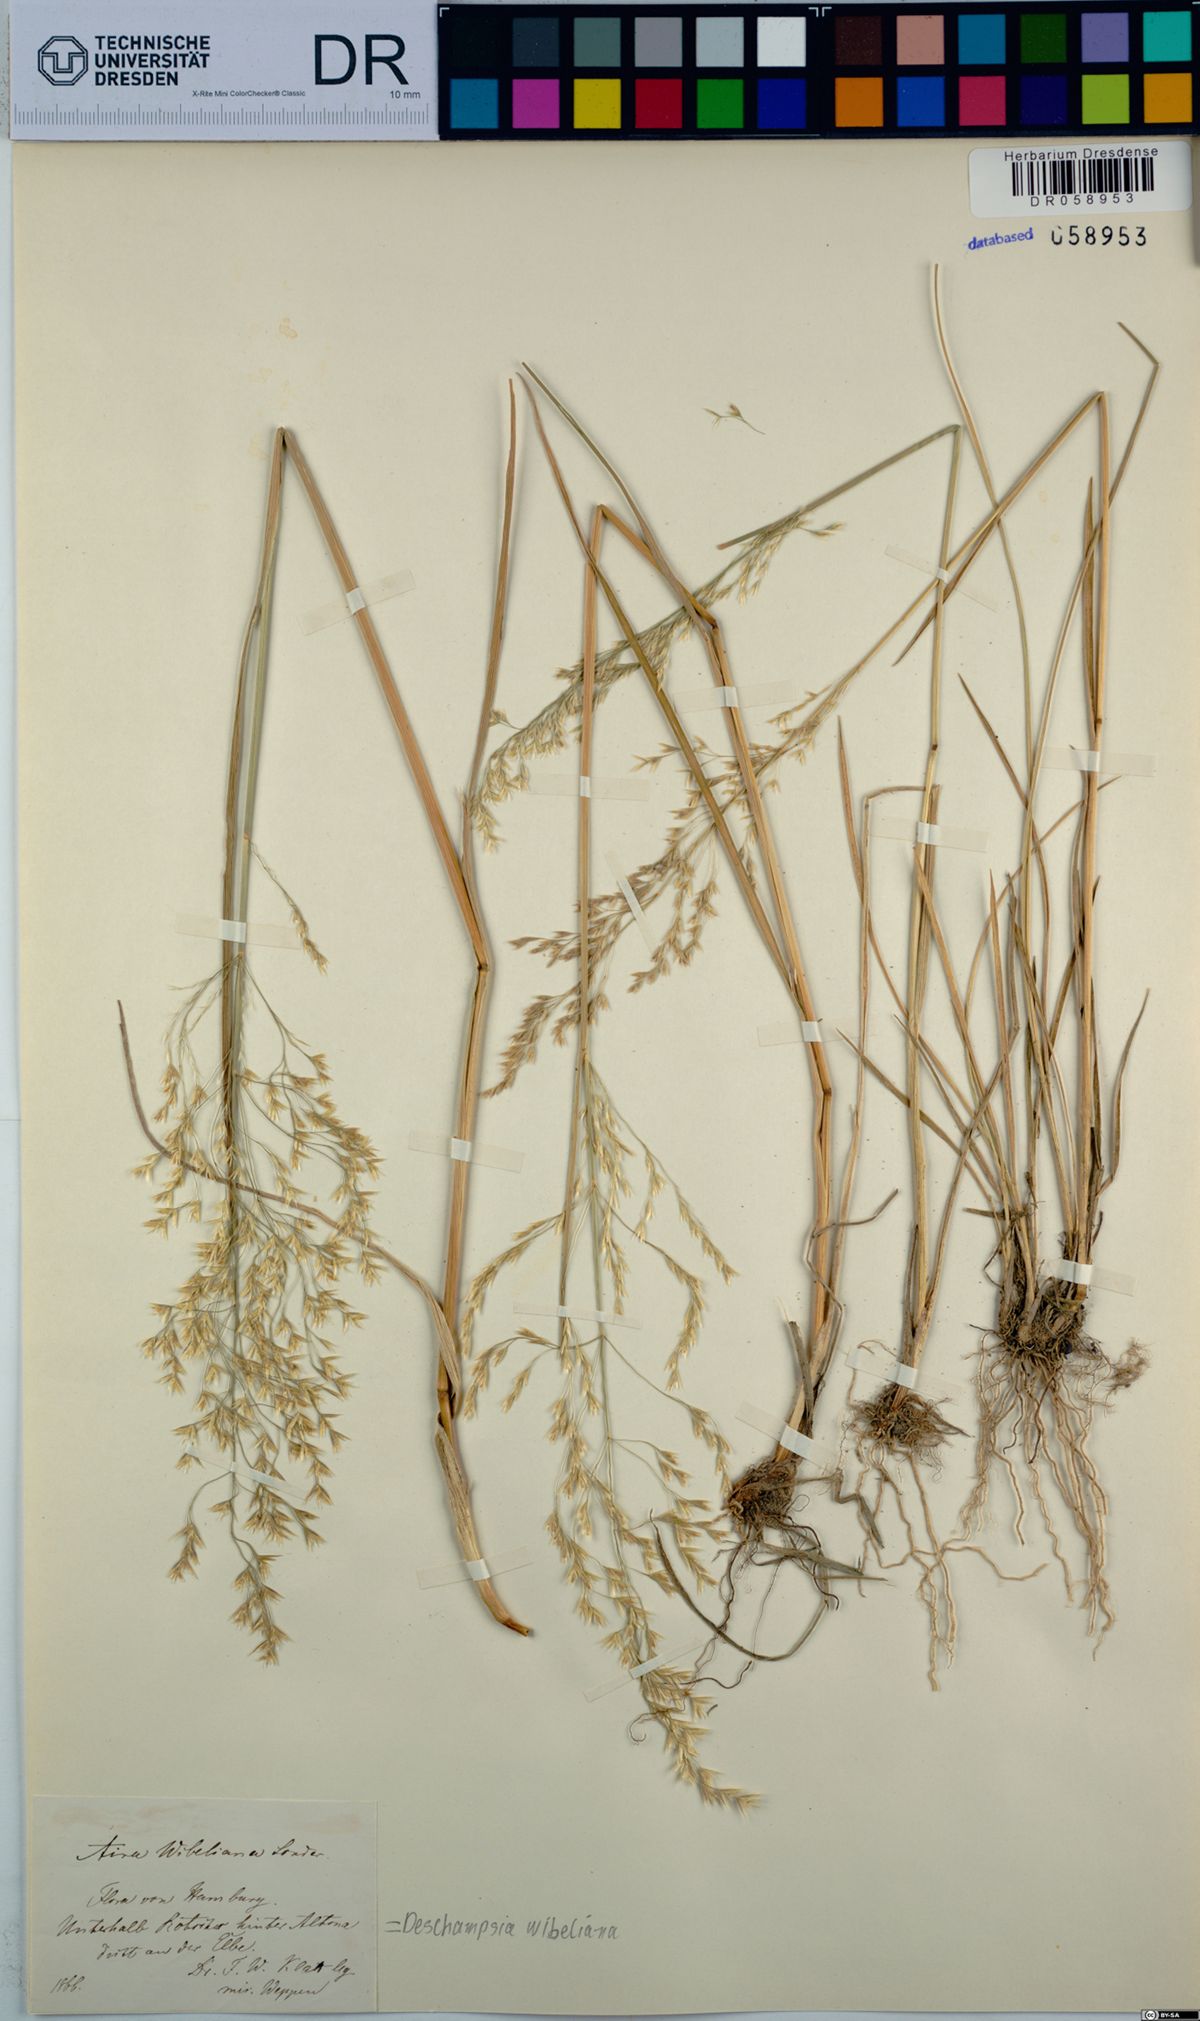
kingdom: Plantae
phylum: Tracheophyta
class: Liliopsida
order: Poales
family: Poaceae
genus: Deschampsia
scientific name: Deschampsia cespitosa
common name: Tufted hair-grass
